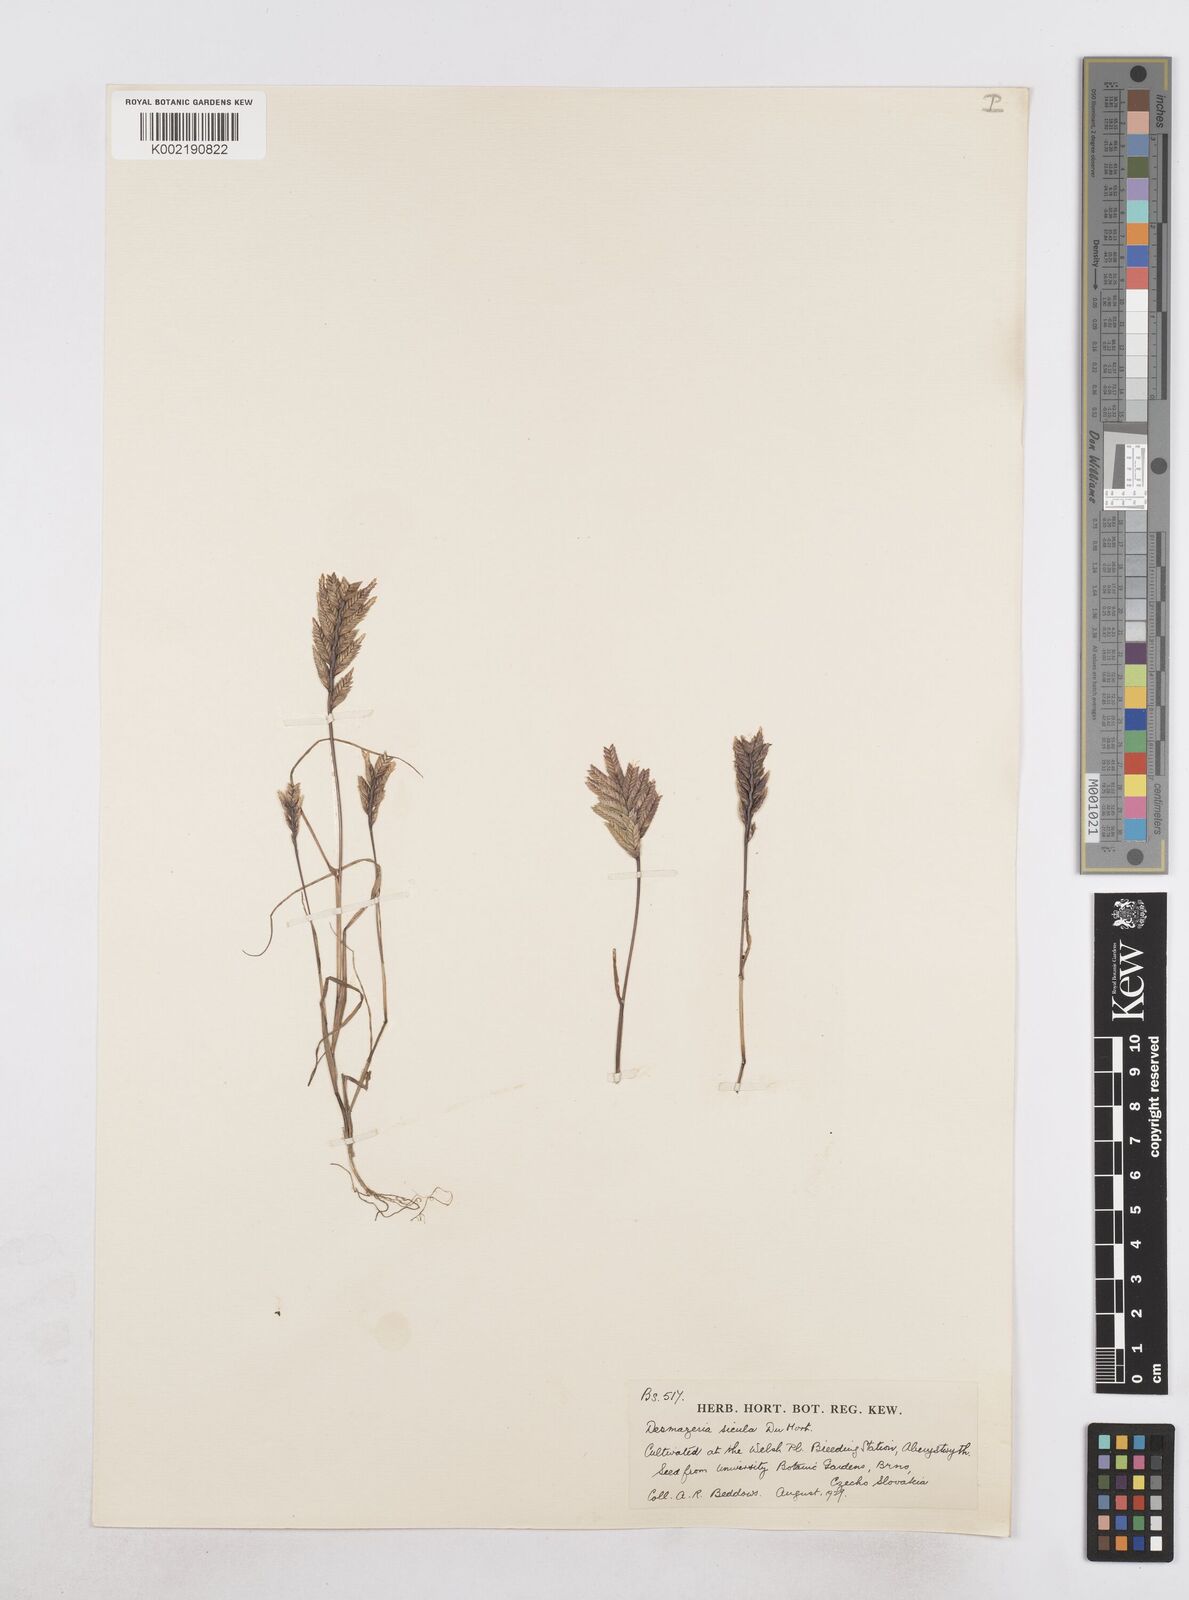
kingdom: Plantae
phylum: Tracheophyta
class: Liliopsida
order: Poales
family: Poaceae
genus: Desmazeria
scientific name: Desmazeria sicula
